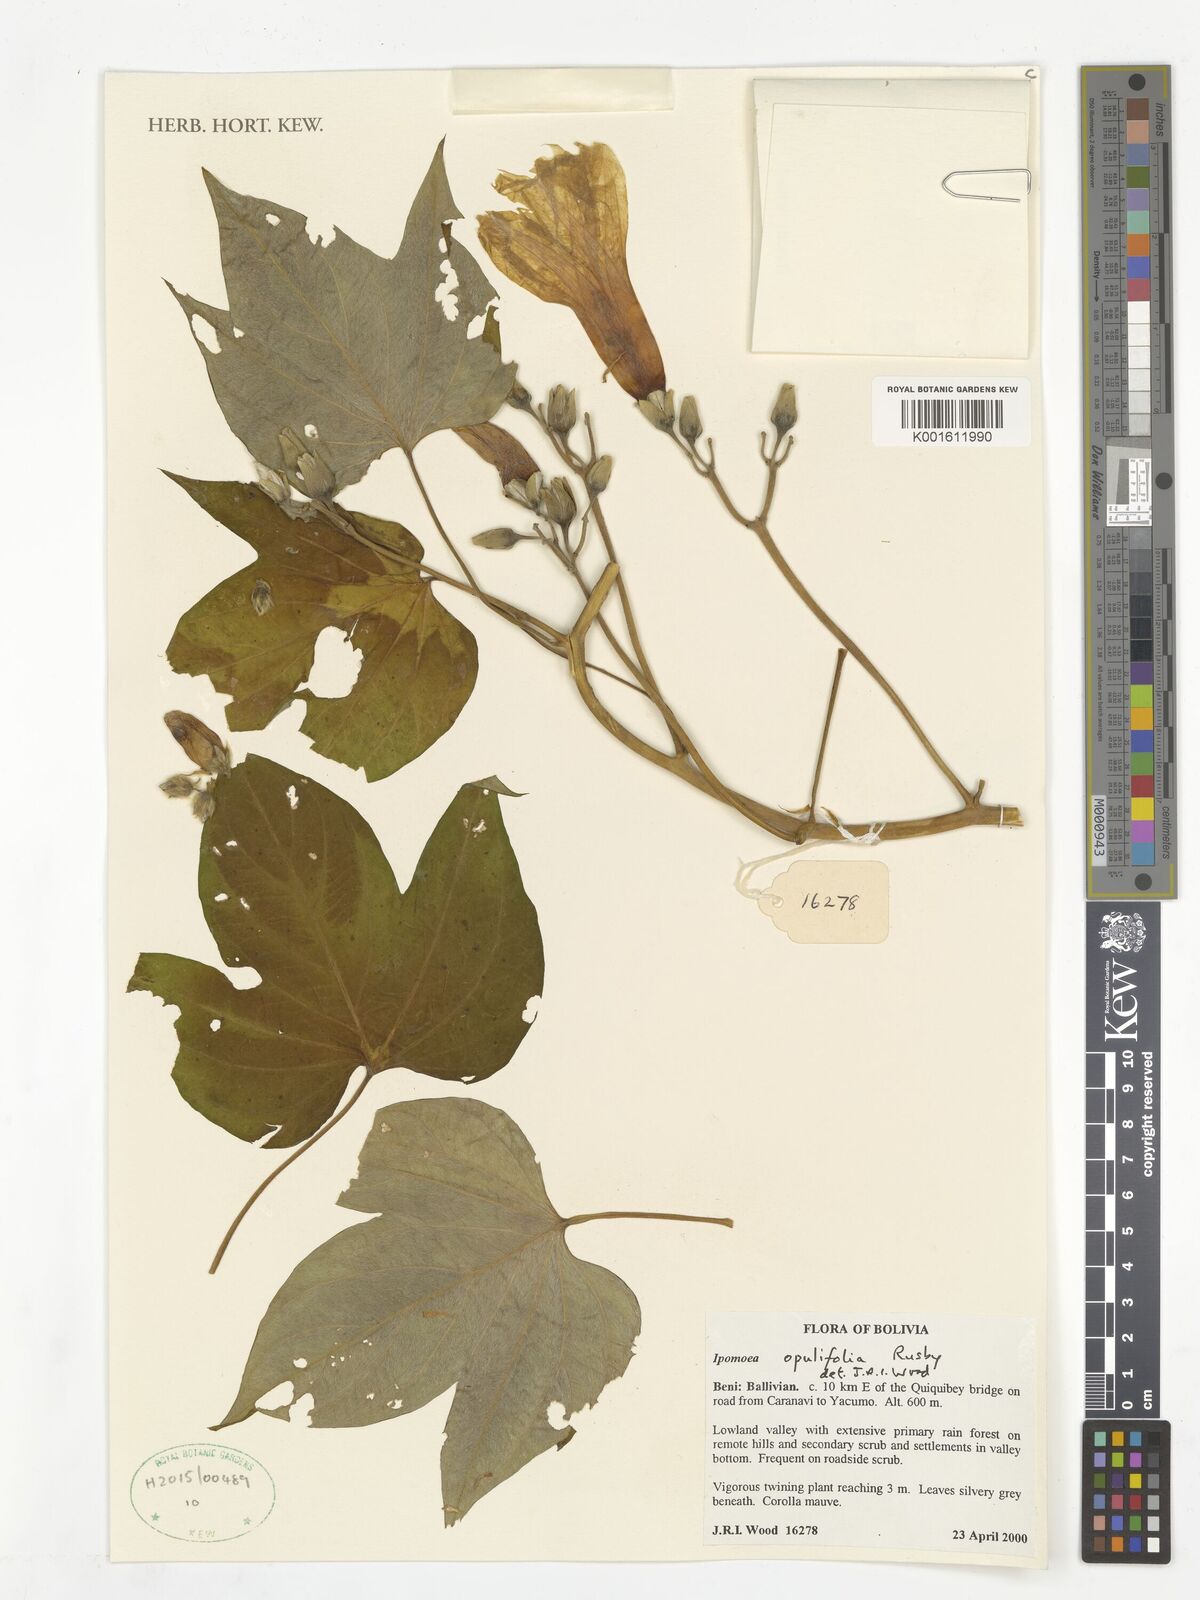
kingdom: Plantae
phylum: Tracheophyta
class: Magnoliopsida
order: Solanales
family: Convolvulaceae
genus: Ipomoea
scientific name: Ipomoea opulifolia
